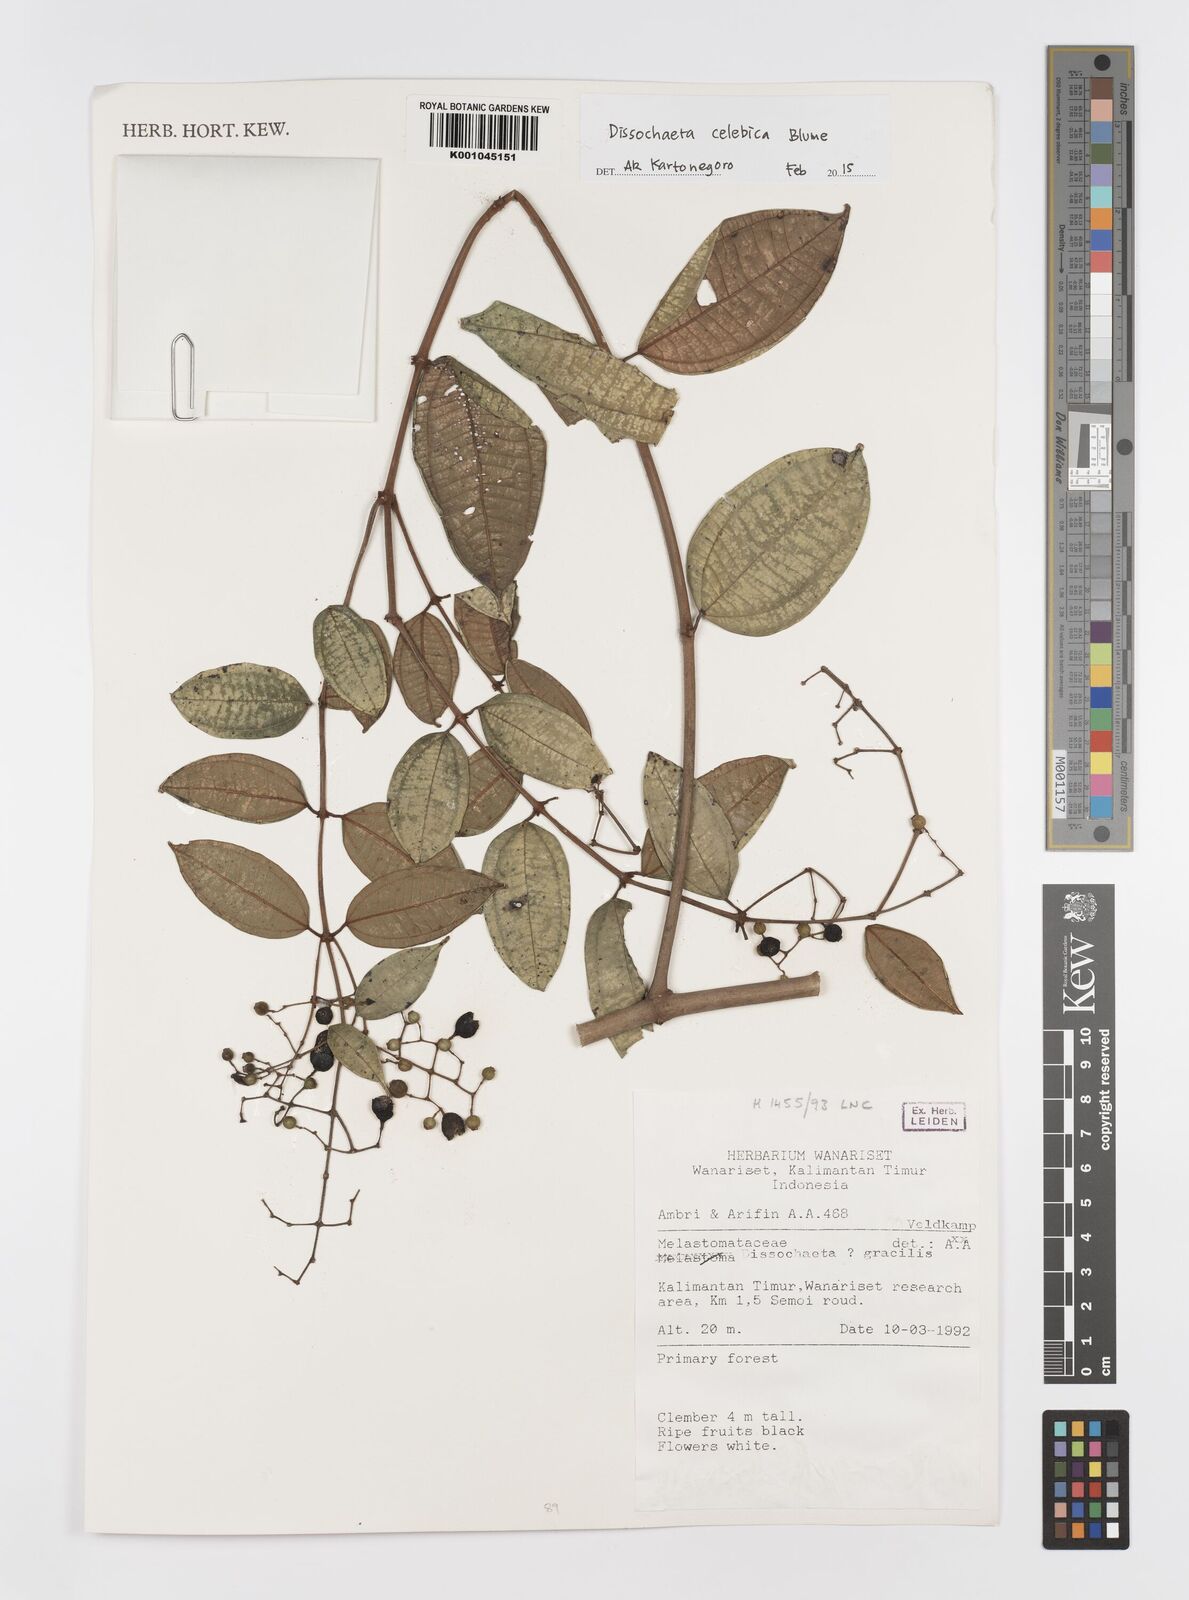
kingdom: Plantae
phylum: Tracheophyta
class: Magnoliopsida
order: Myrtales
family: Melastomataceae
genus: Dissochaeta
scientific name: Dissochaeta celebica
